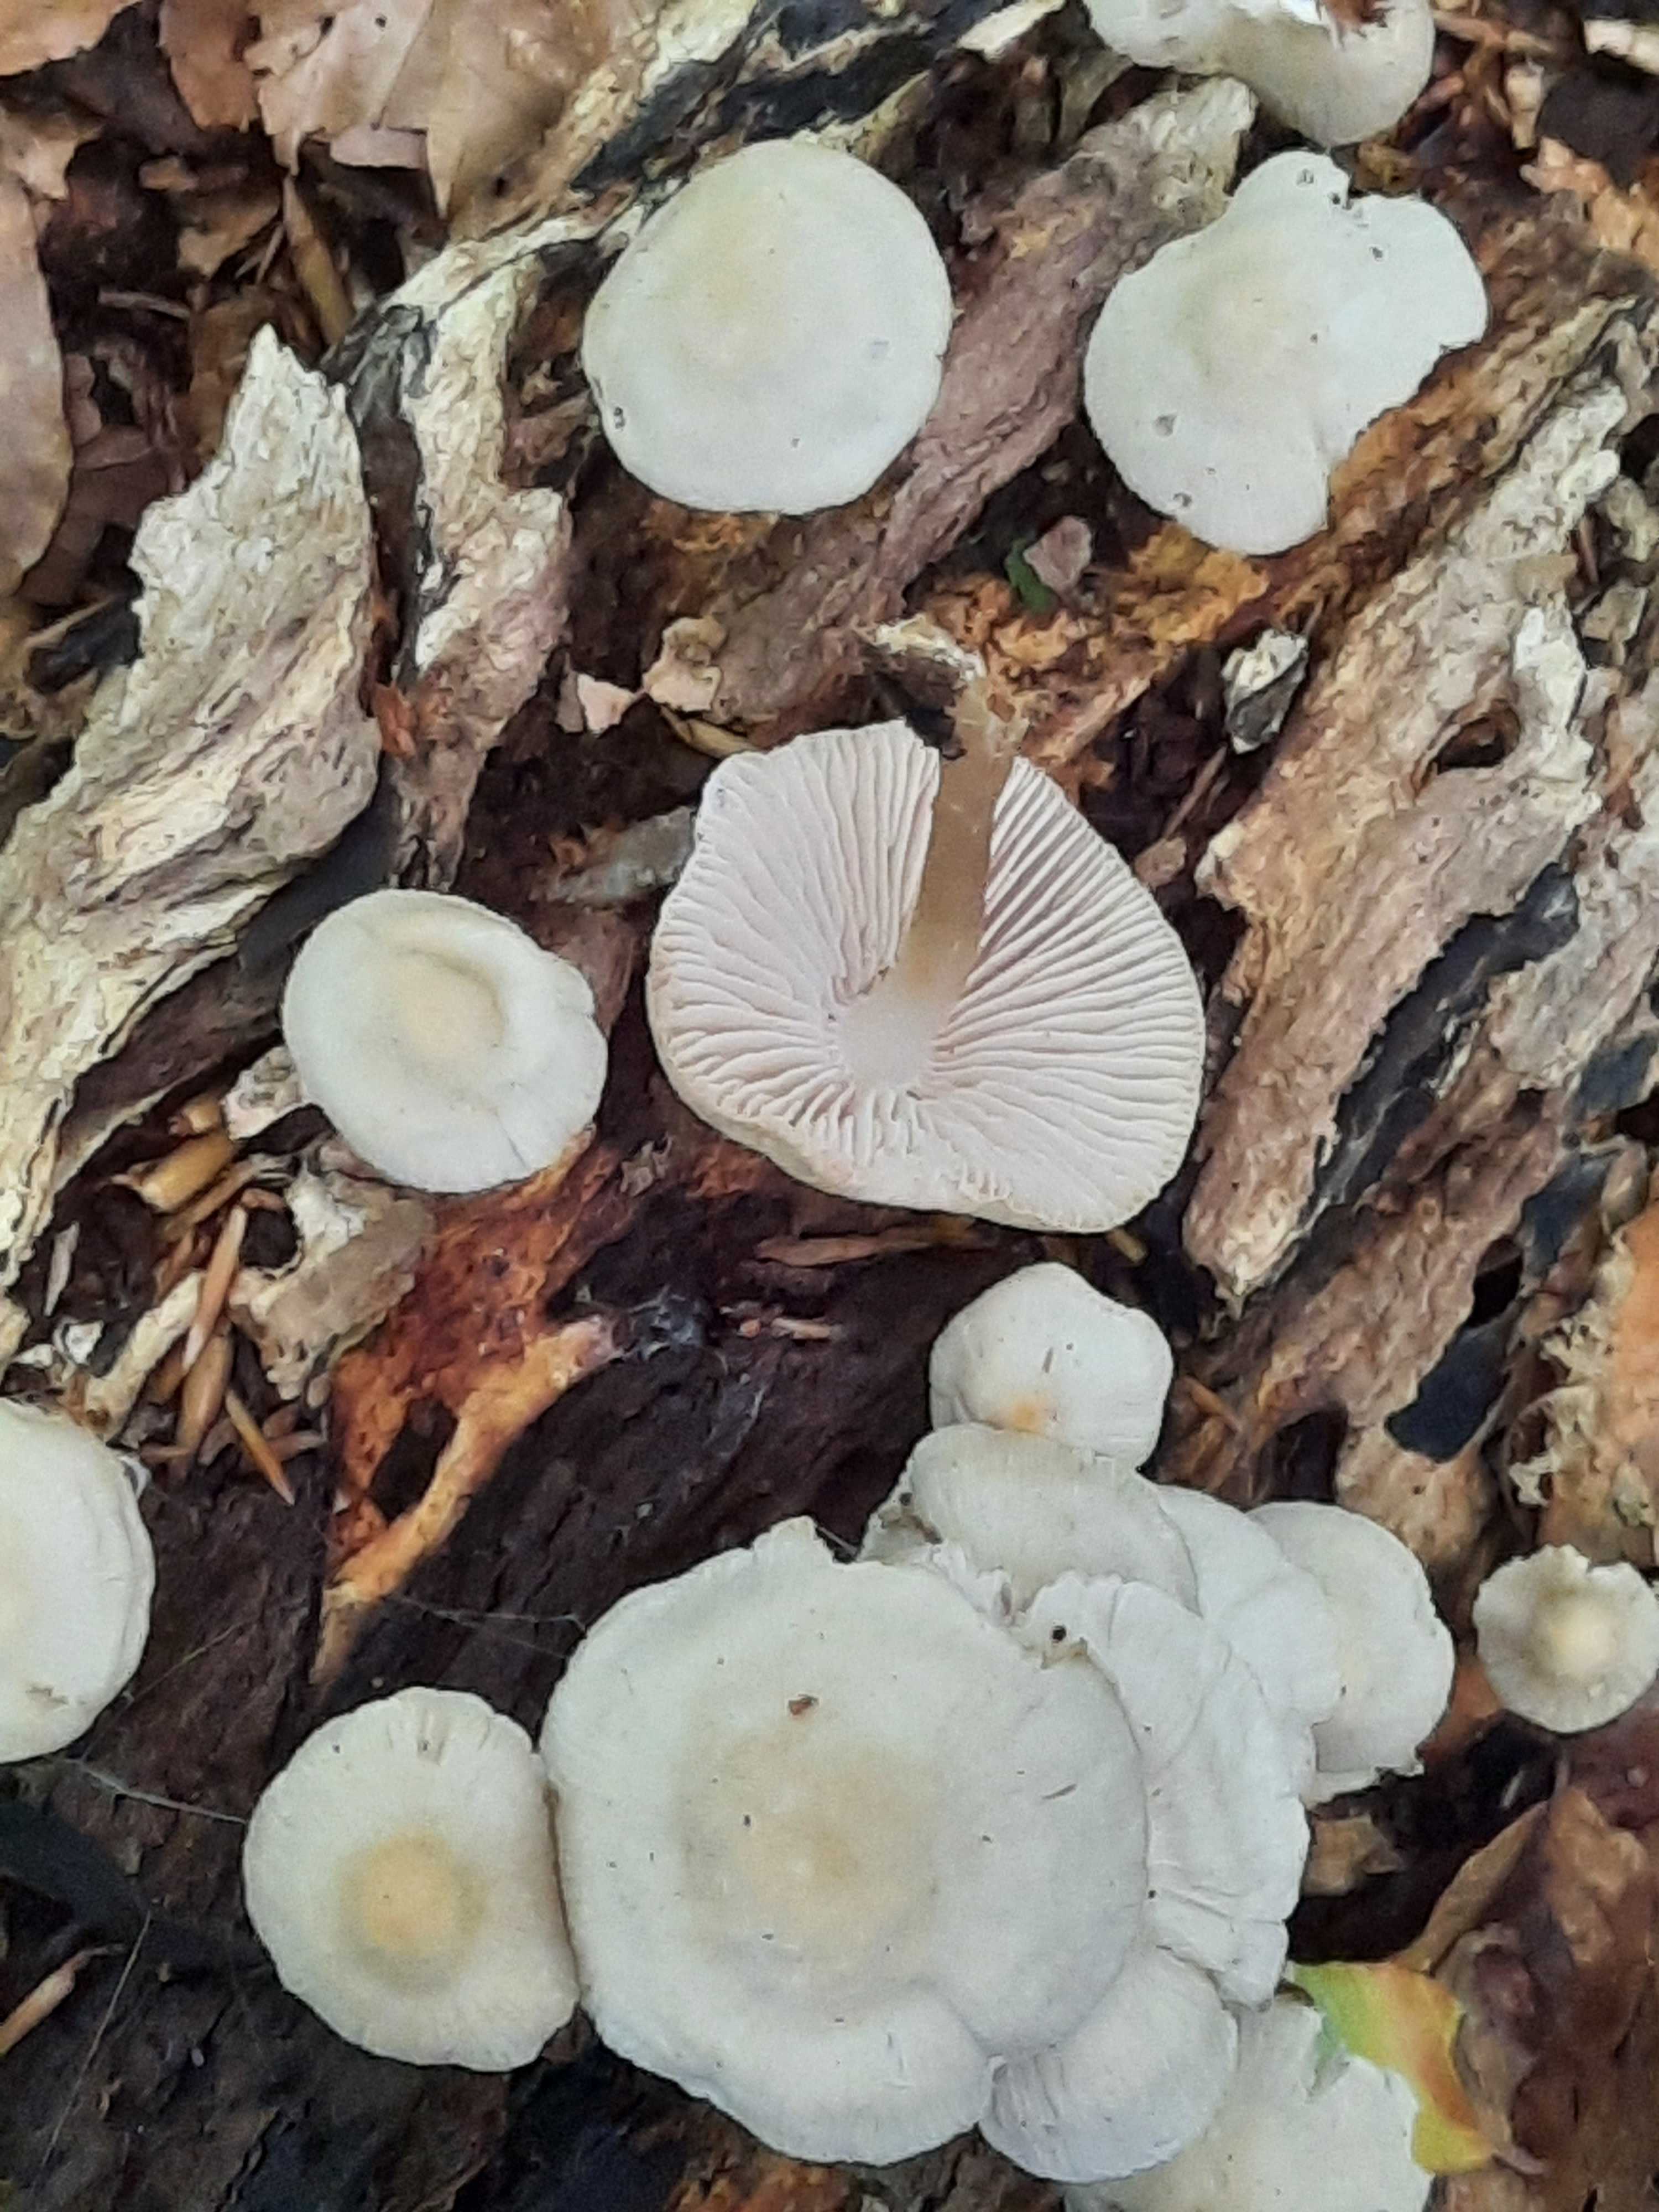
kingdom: Fungi
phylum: Basidiomycota
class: Agaricomycetes
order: Agaricales
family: Mycenaceae
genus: Mycena
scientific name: Mycena galericulata
